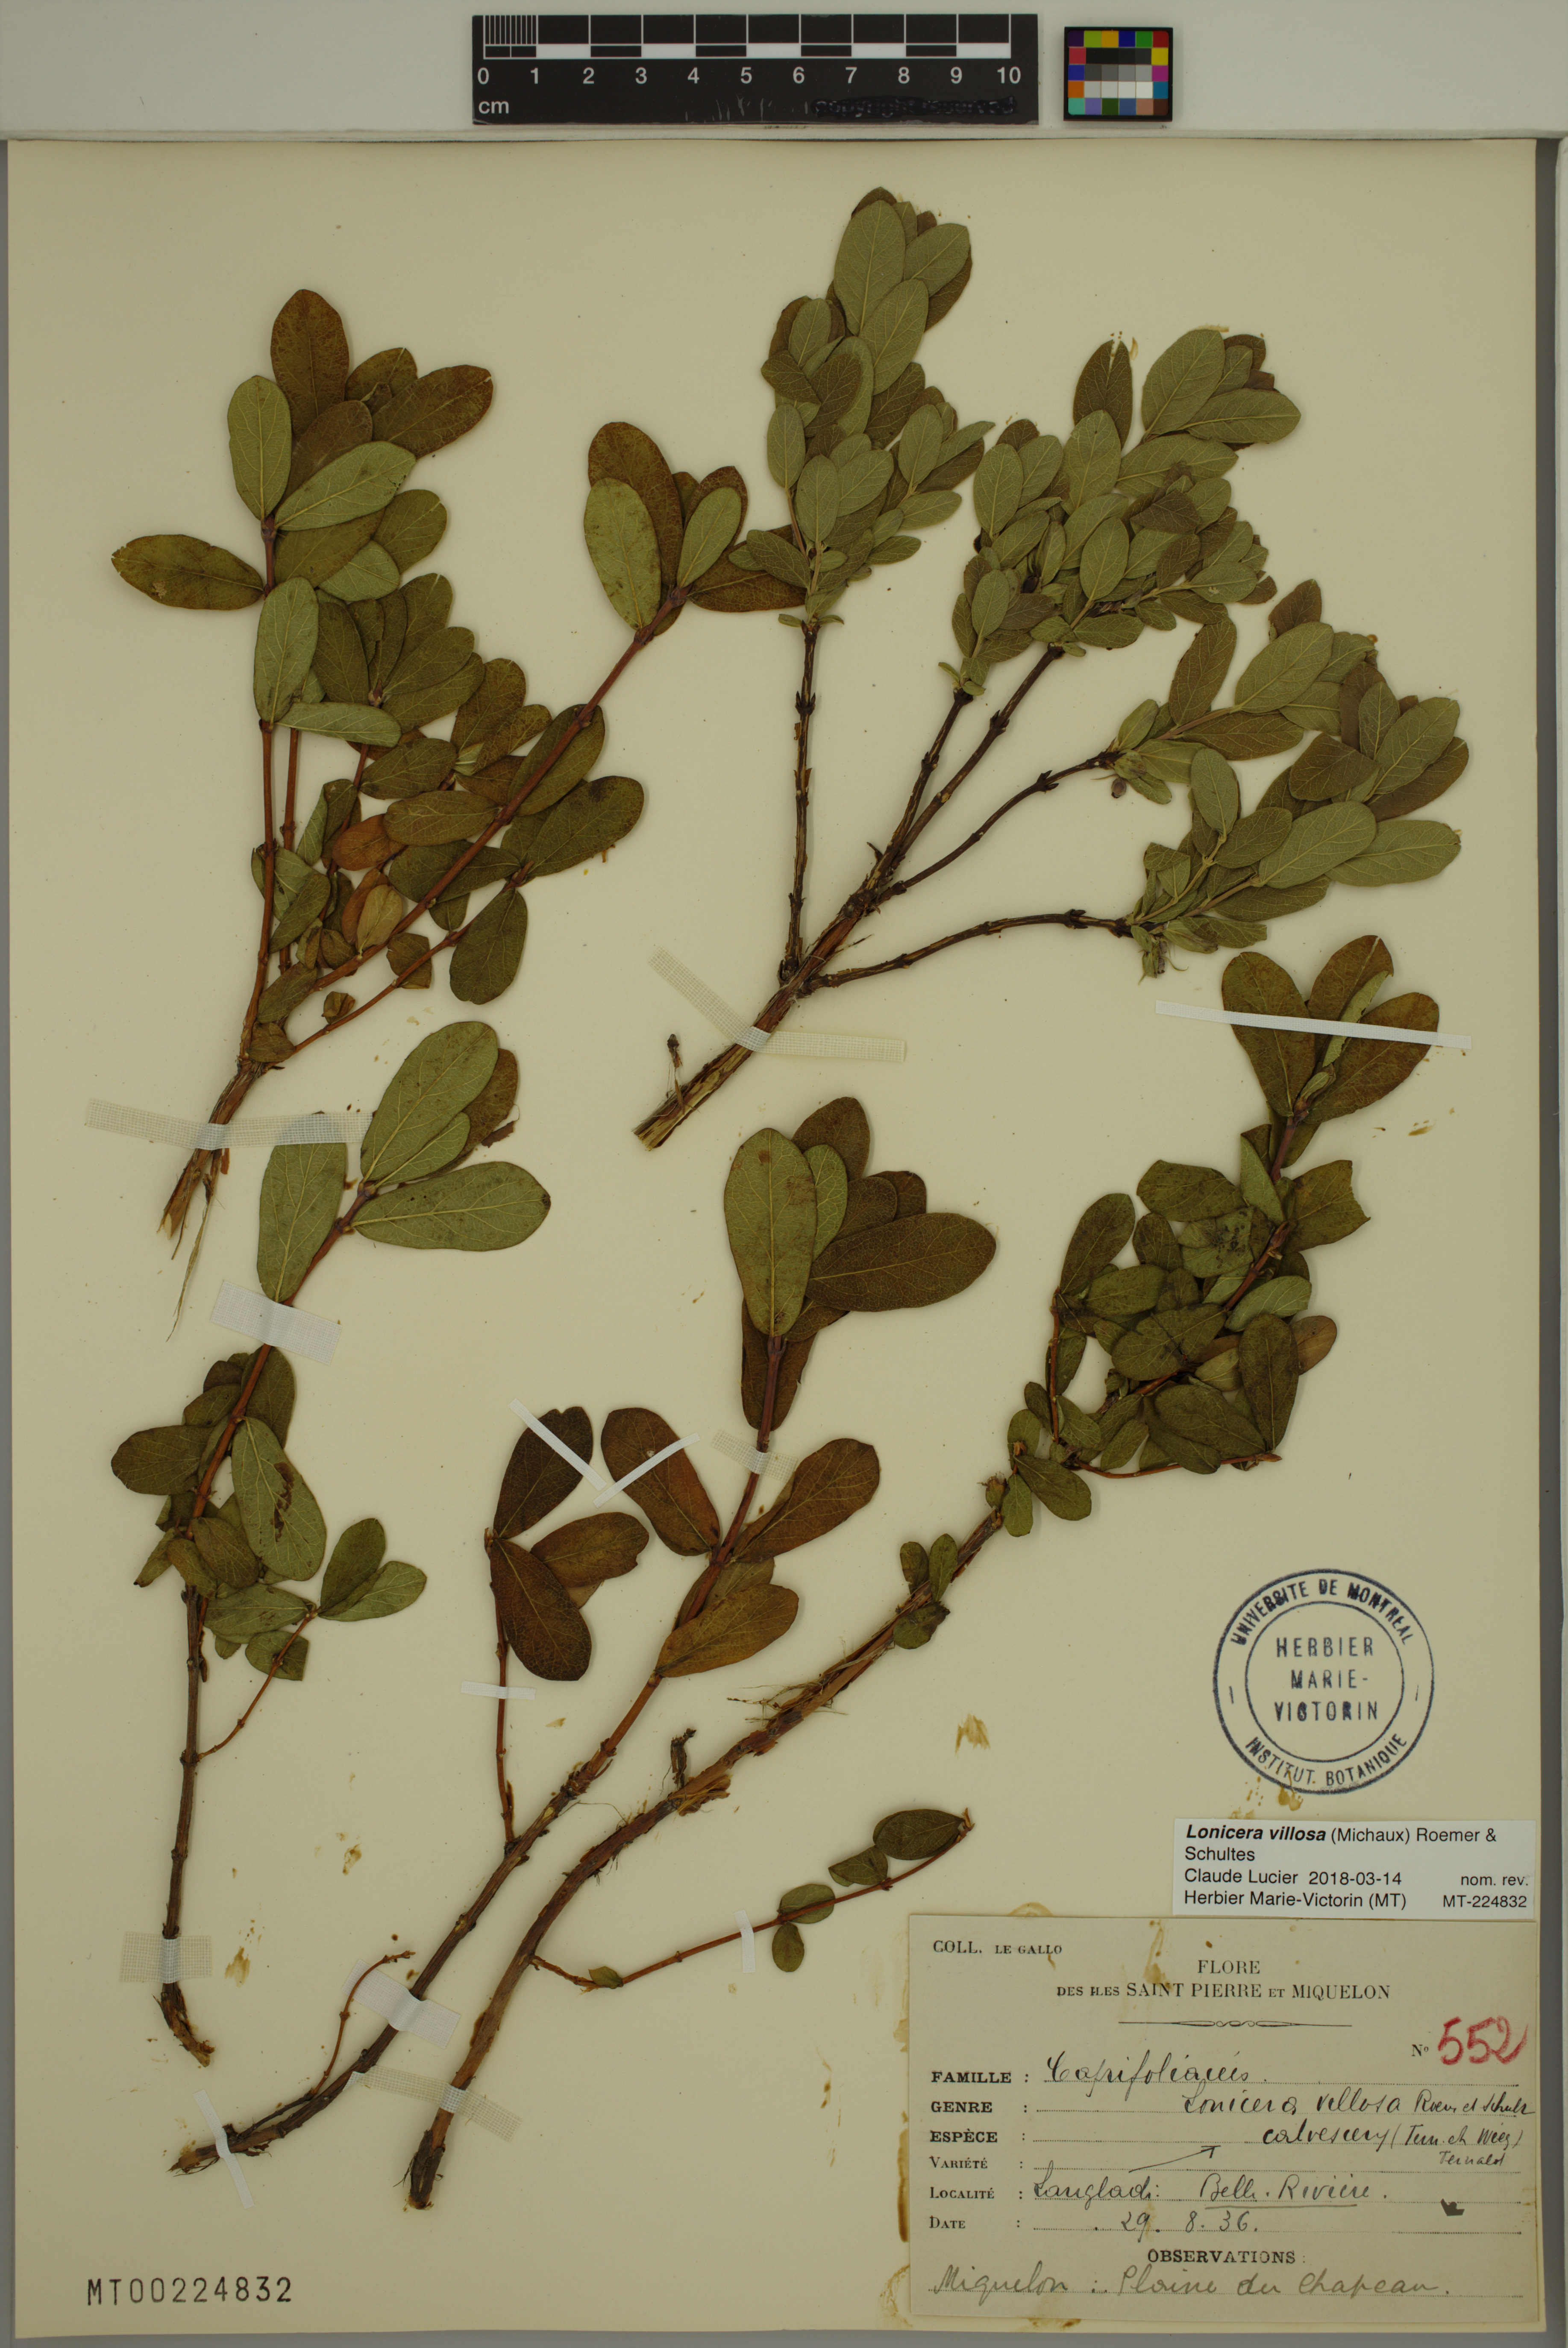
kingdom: Plantae
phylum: Tracheophyta
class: Magnoliopsida
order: Dipsacales
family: Caprifoliaceae
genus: Lonicera
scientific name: Lonicera villosa
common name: Mountain fly-honeysuckle
